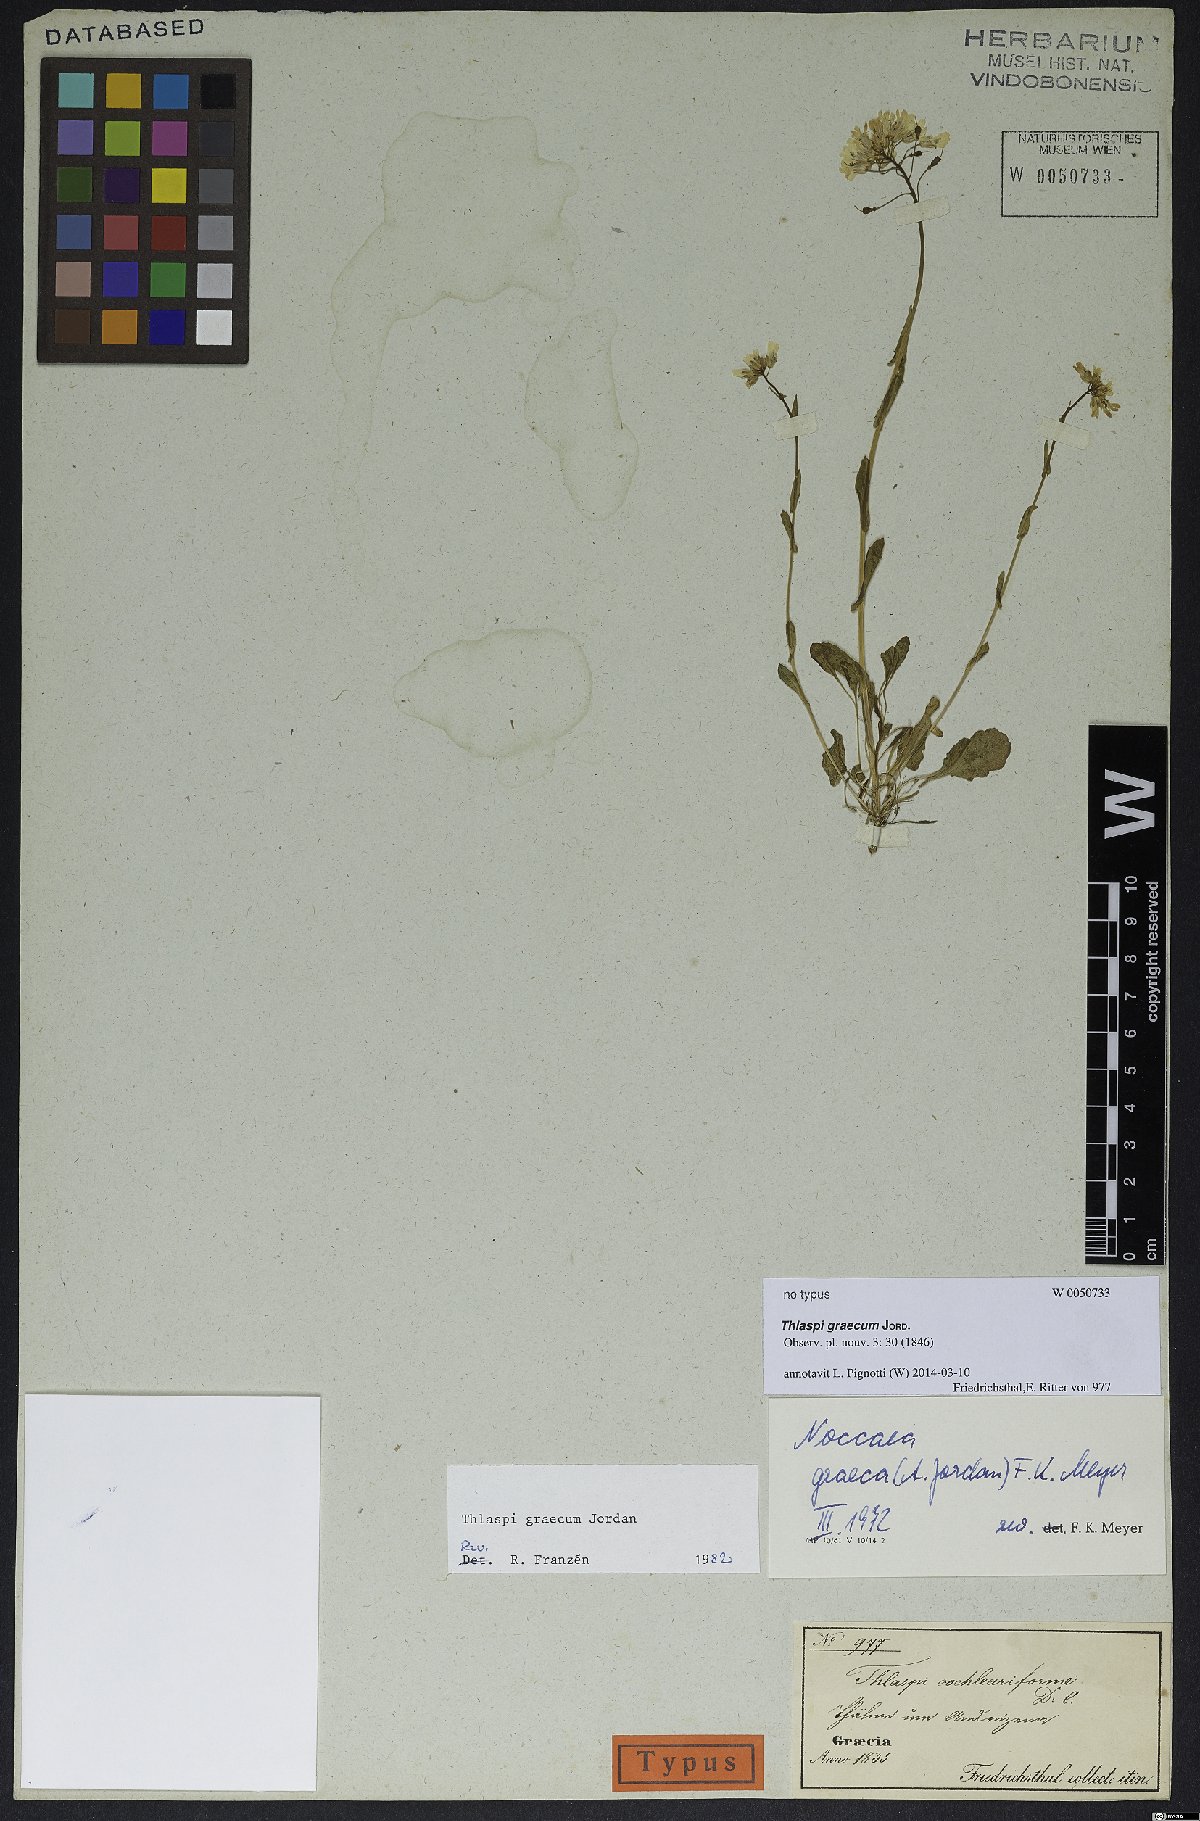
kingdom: Plantae
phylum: Tracheophyta
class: Magnoliopsida
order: Brassicales
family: Brassicaceae
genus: Noccaea
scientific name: Noccaea graeca
